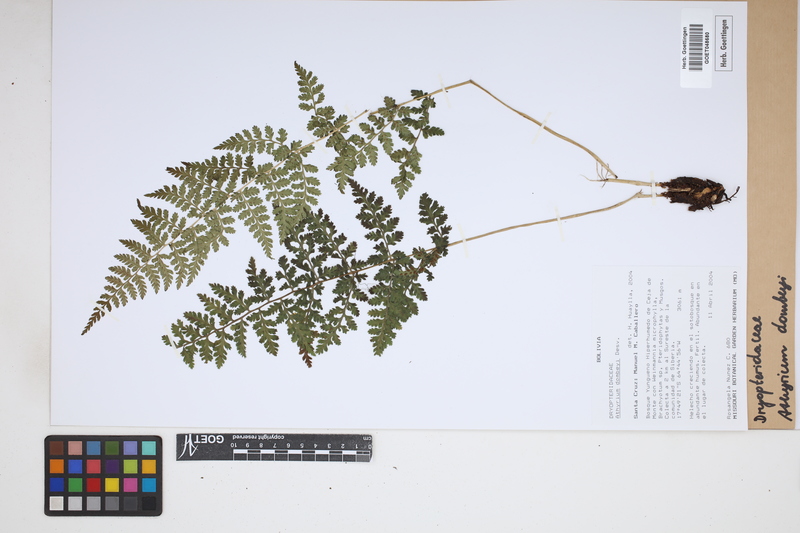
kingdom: Plantae
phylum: Tracheophyta
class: Polypodiopsida
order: Polypodiales
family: Athyriaceae
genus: Athyrium
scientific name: Athyrium dombeyi
